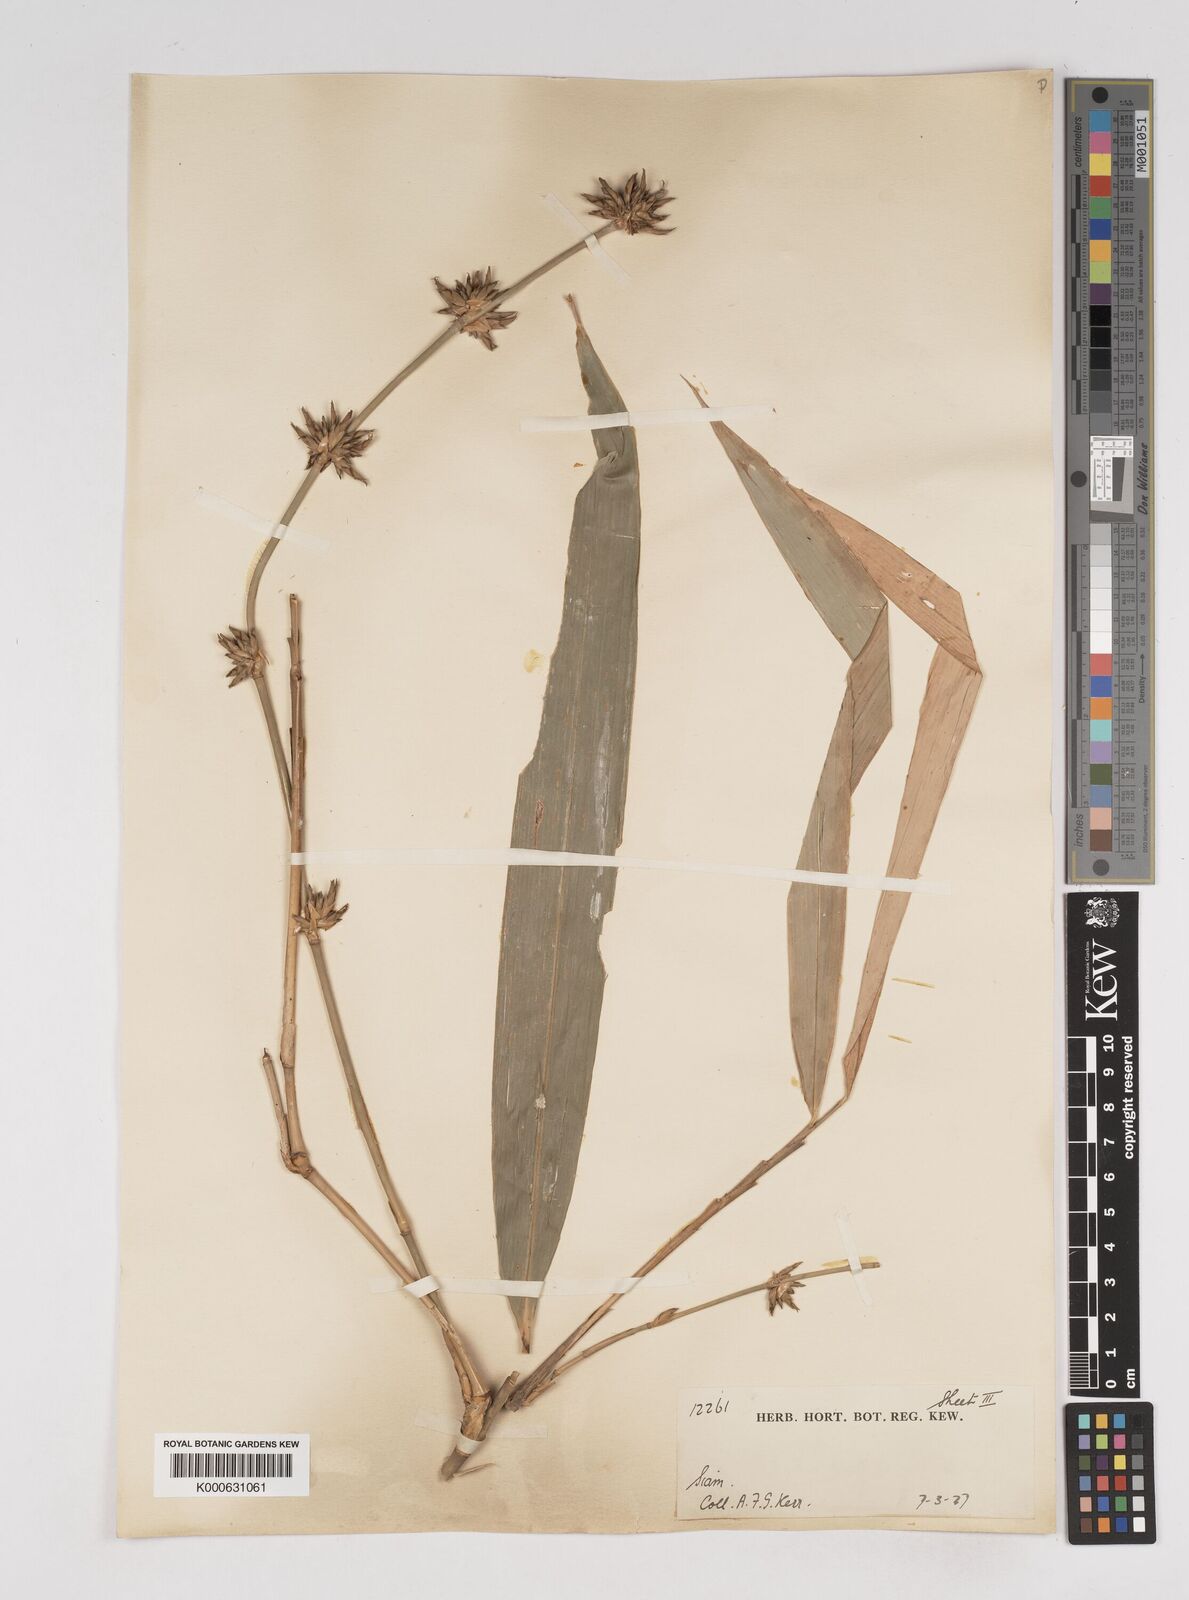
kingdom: Plantae
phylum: Tracheophyta
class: Liliopsida
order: Poales
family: Poaceae
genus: Gigantochloa
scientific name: Gigantochloa apus
